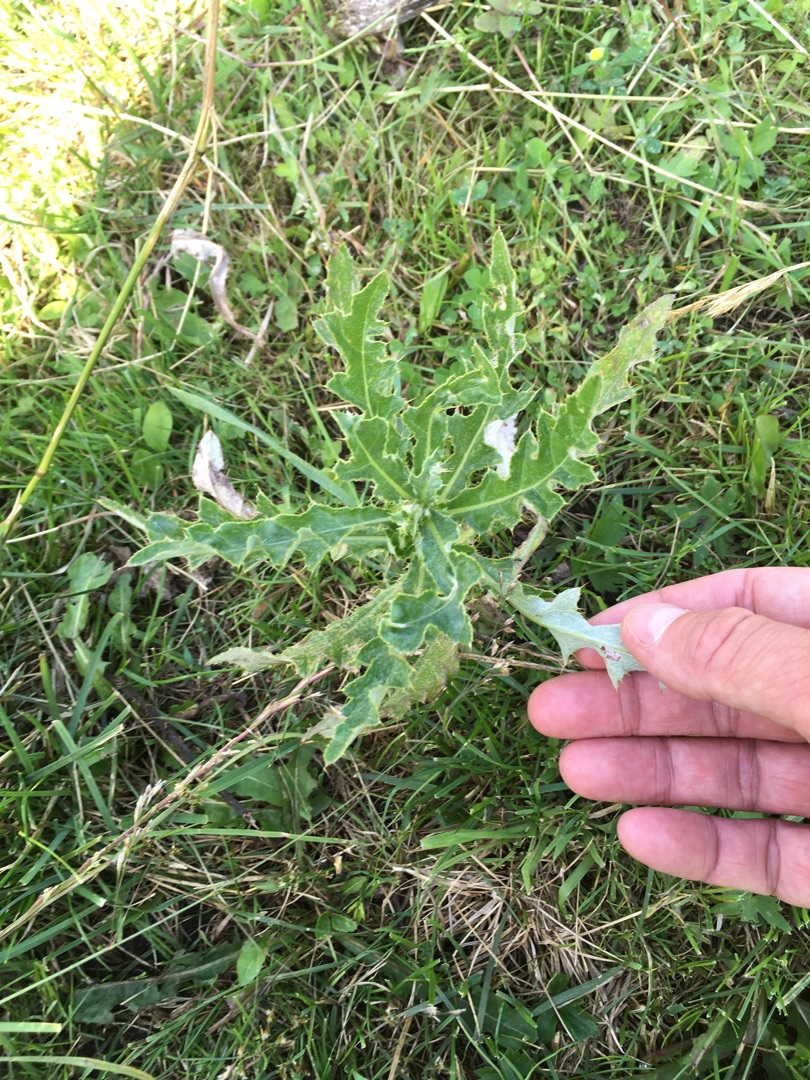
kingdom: Plantae
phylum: Tracheophyta
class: Magnoliopsida
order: Asterales
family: Asteraceae
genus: Cirsium
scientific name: Cirsium arvense
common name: Ager-tidsel
